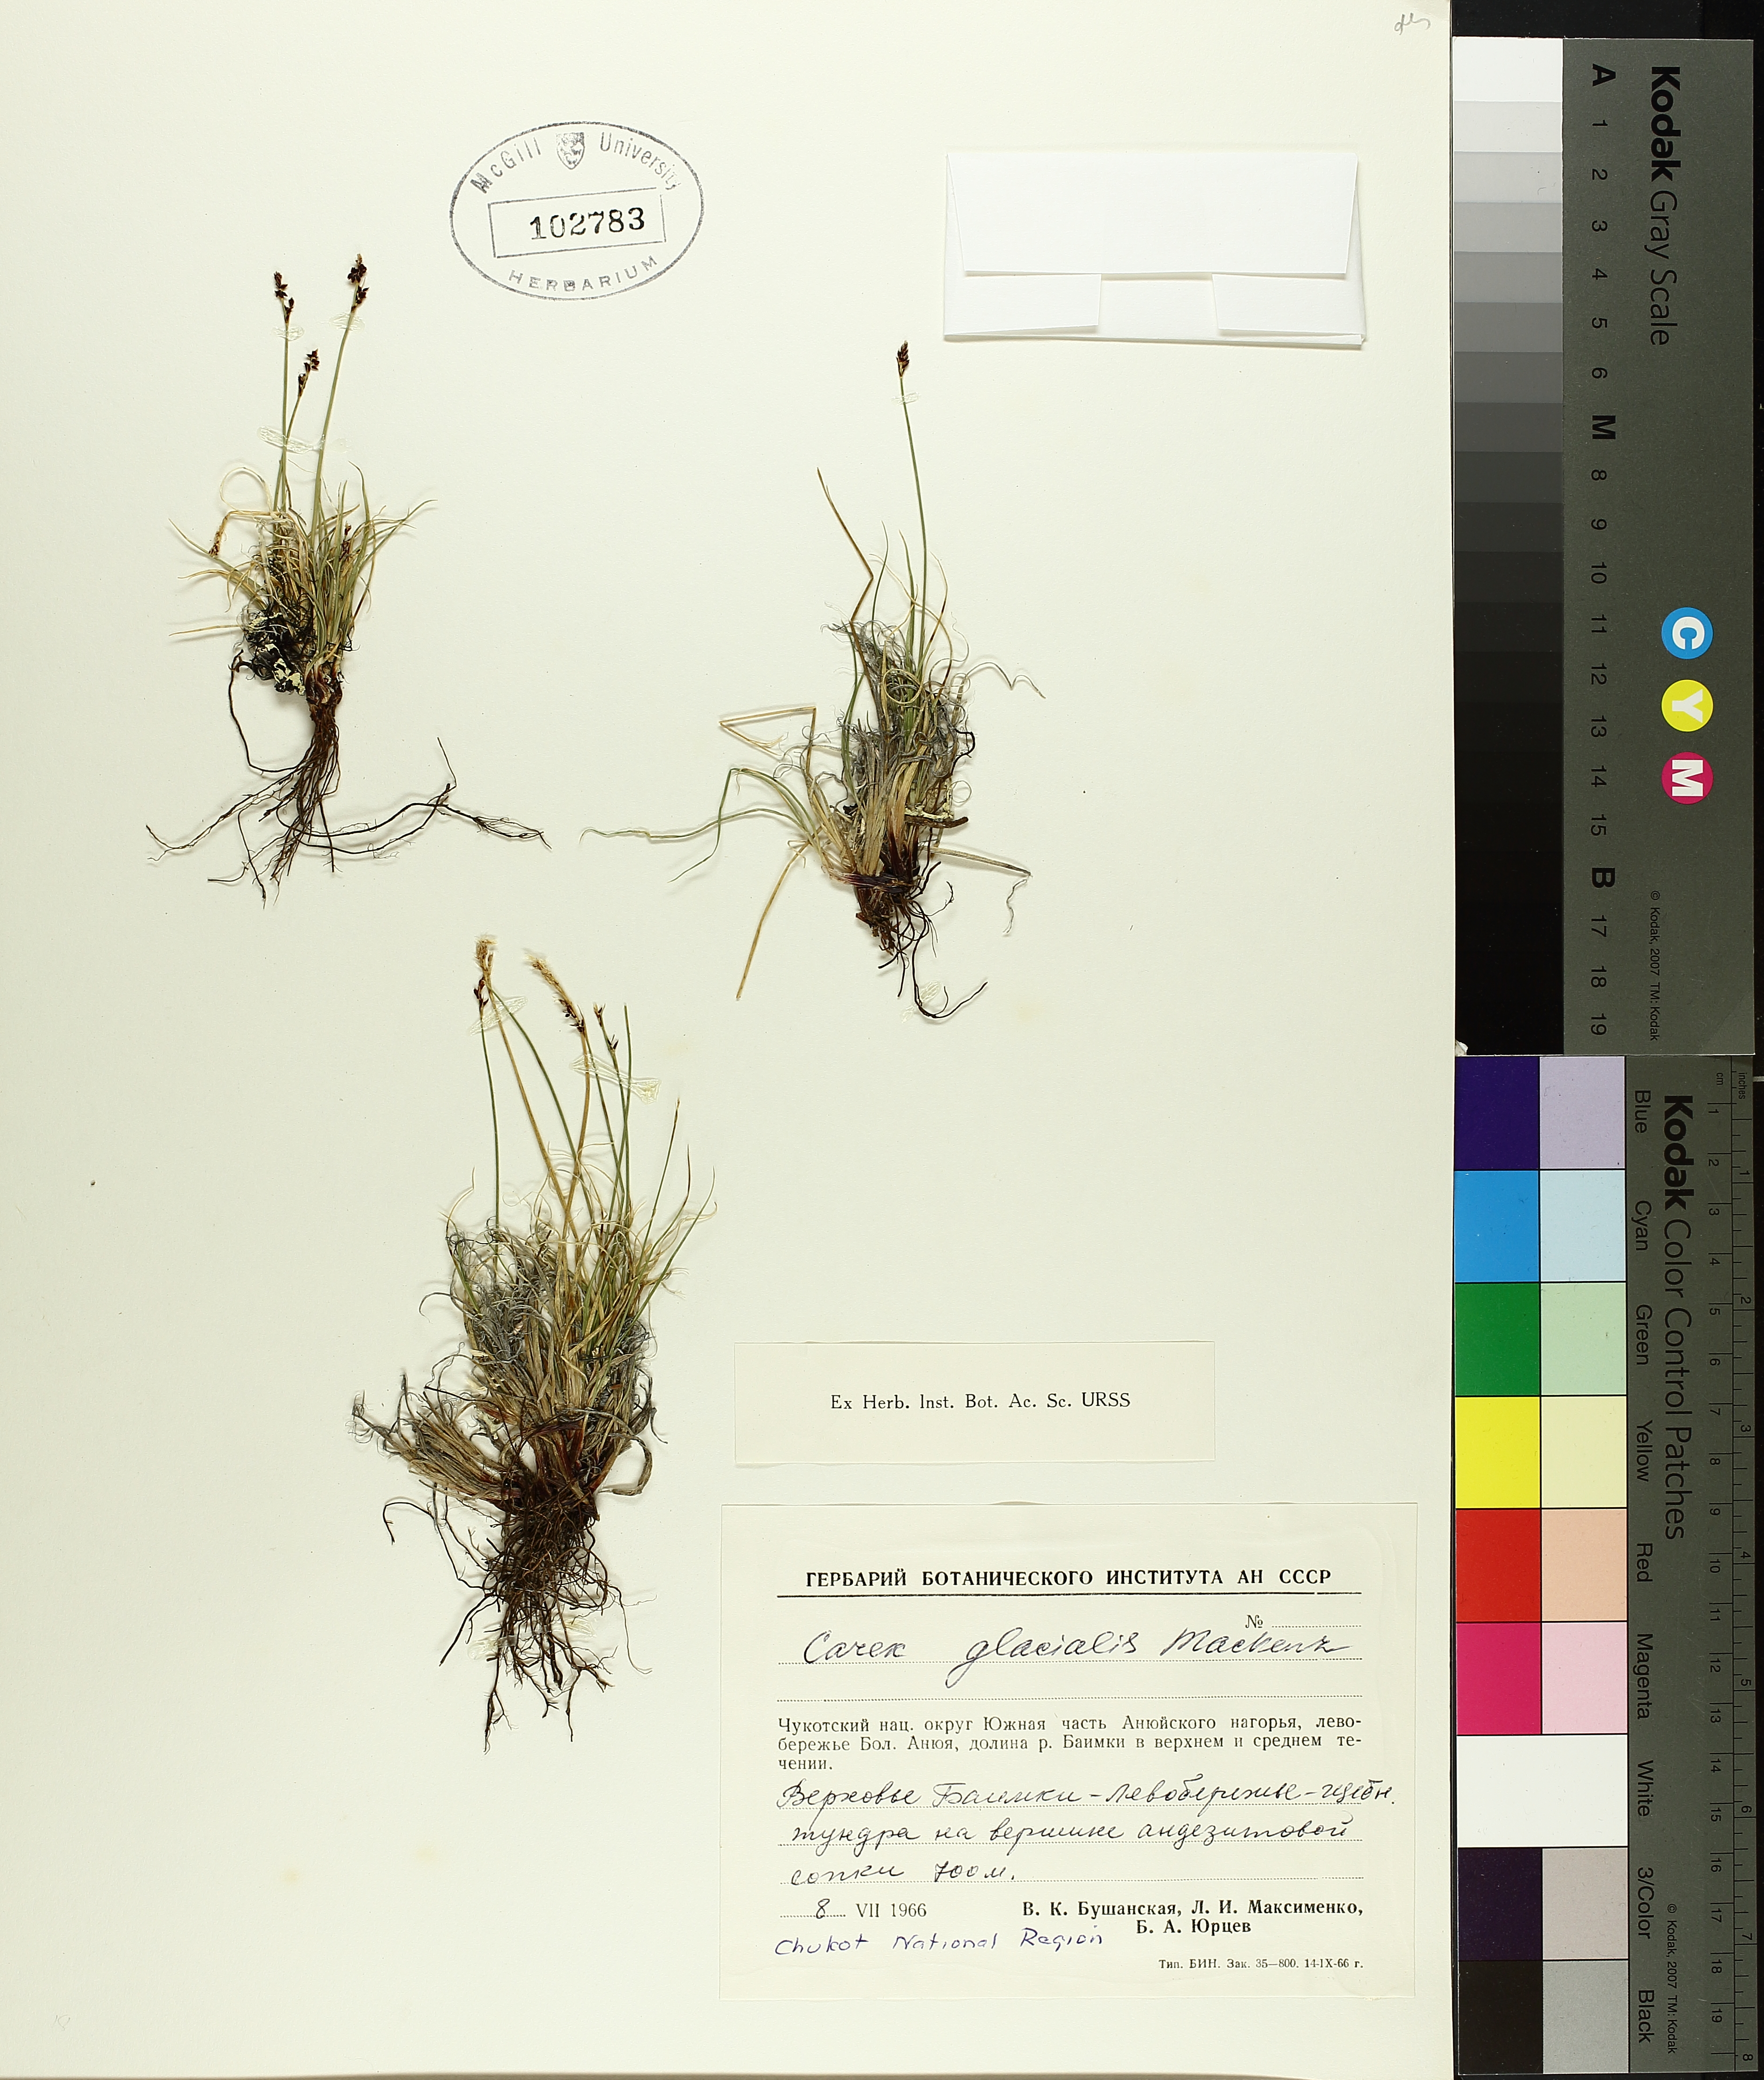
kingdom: Plantae
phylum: Tracheophyta
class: Liliopsida
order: Poales
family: Cyperaceae
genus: Carex
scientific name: Carex glacialis
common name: Newfoundland sedge
